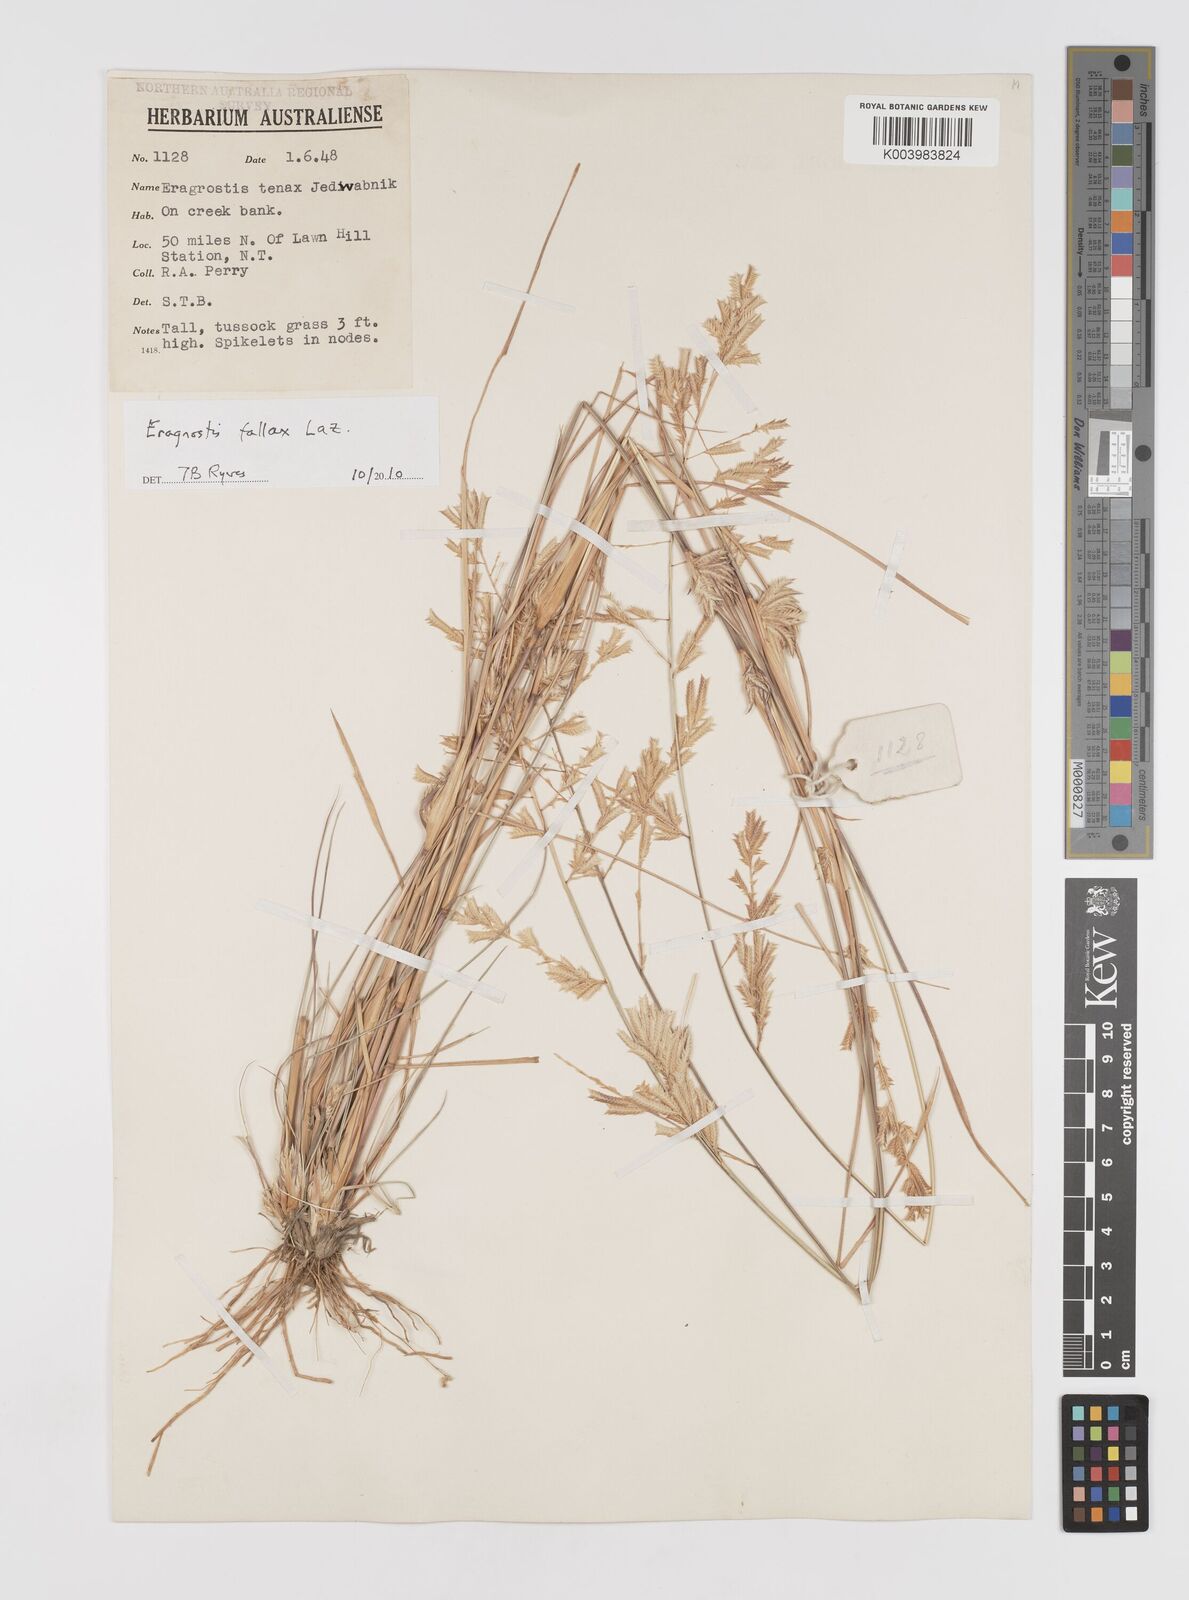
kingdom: Plantae
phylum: Tracheophyta
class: Liliopsida
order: Poales
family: Poaceae
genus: Eragrostis
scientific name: Eragrostis fallax
